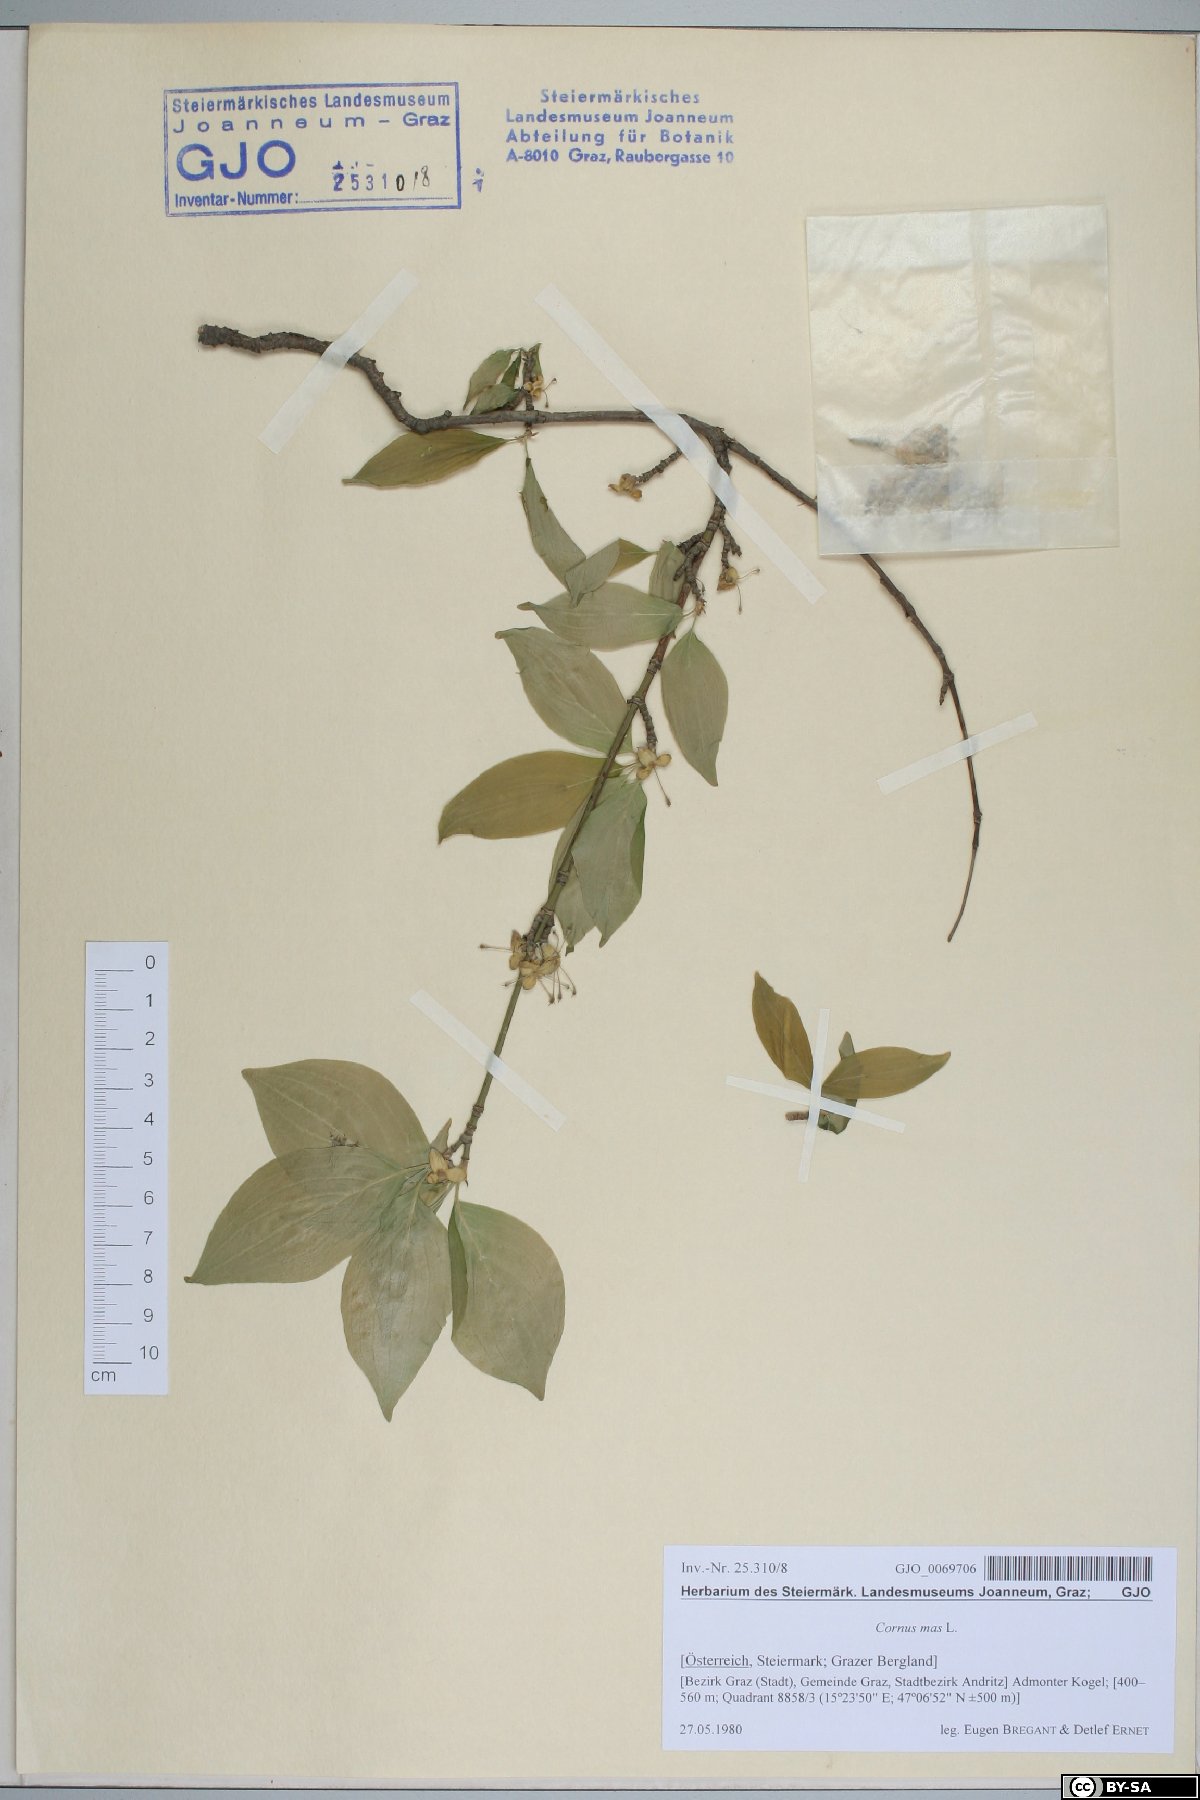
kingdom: Plantae
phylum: Tracheophyta
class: Magnoliopsida
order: Cornales
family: Cornaceae
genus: Cornus
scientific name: Cornus mas
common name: Cornelian-cherry
